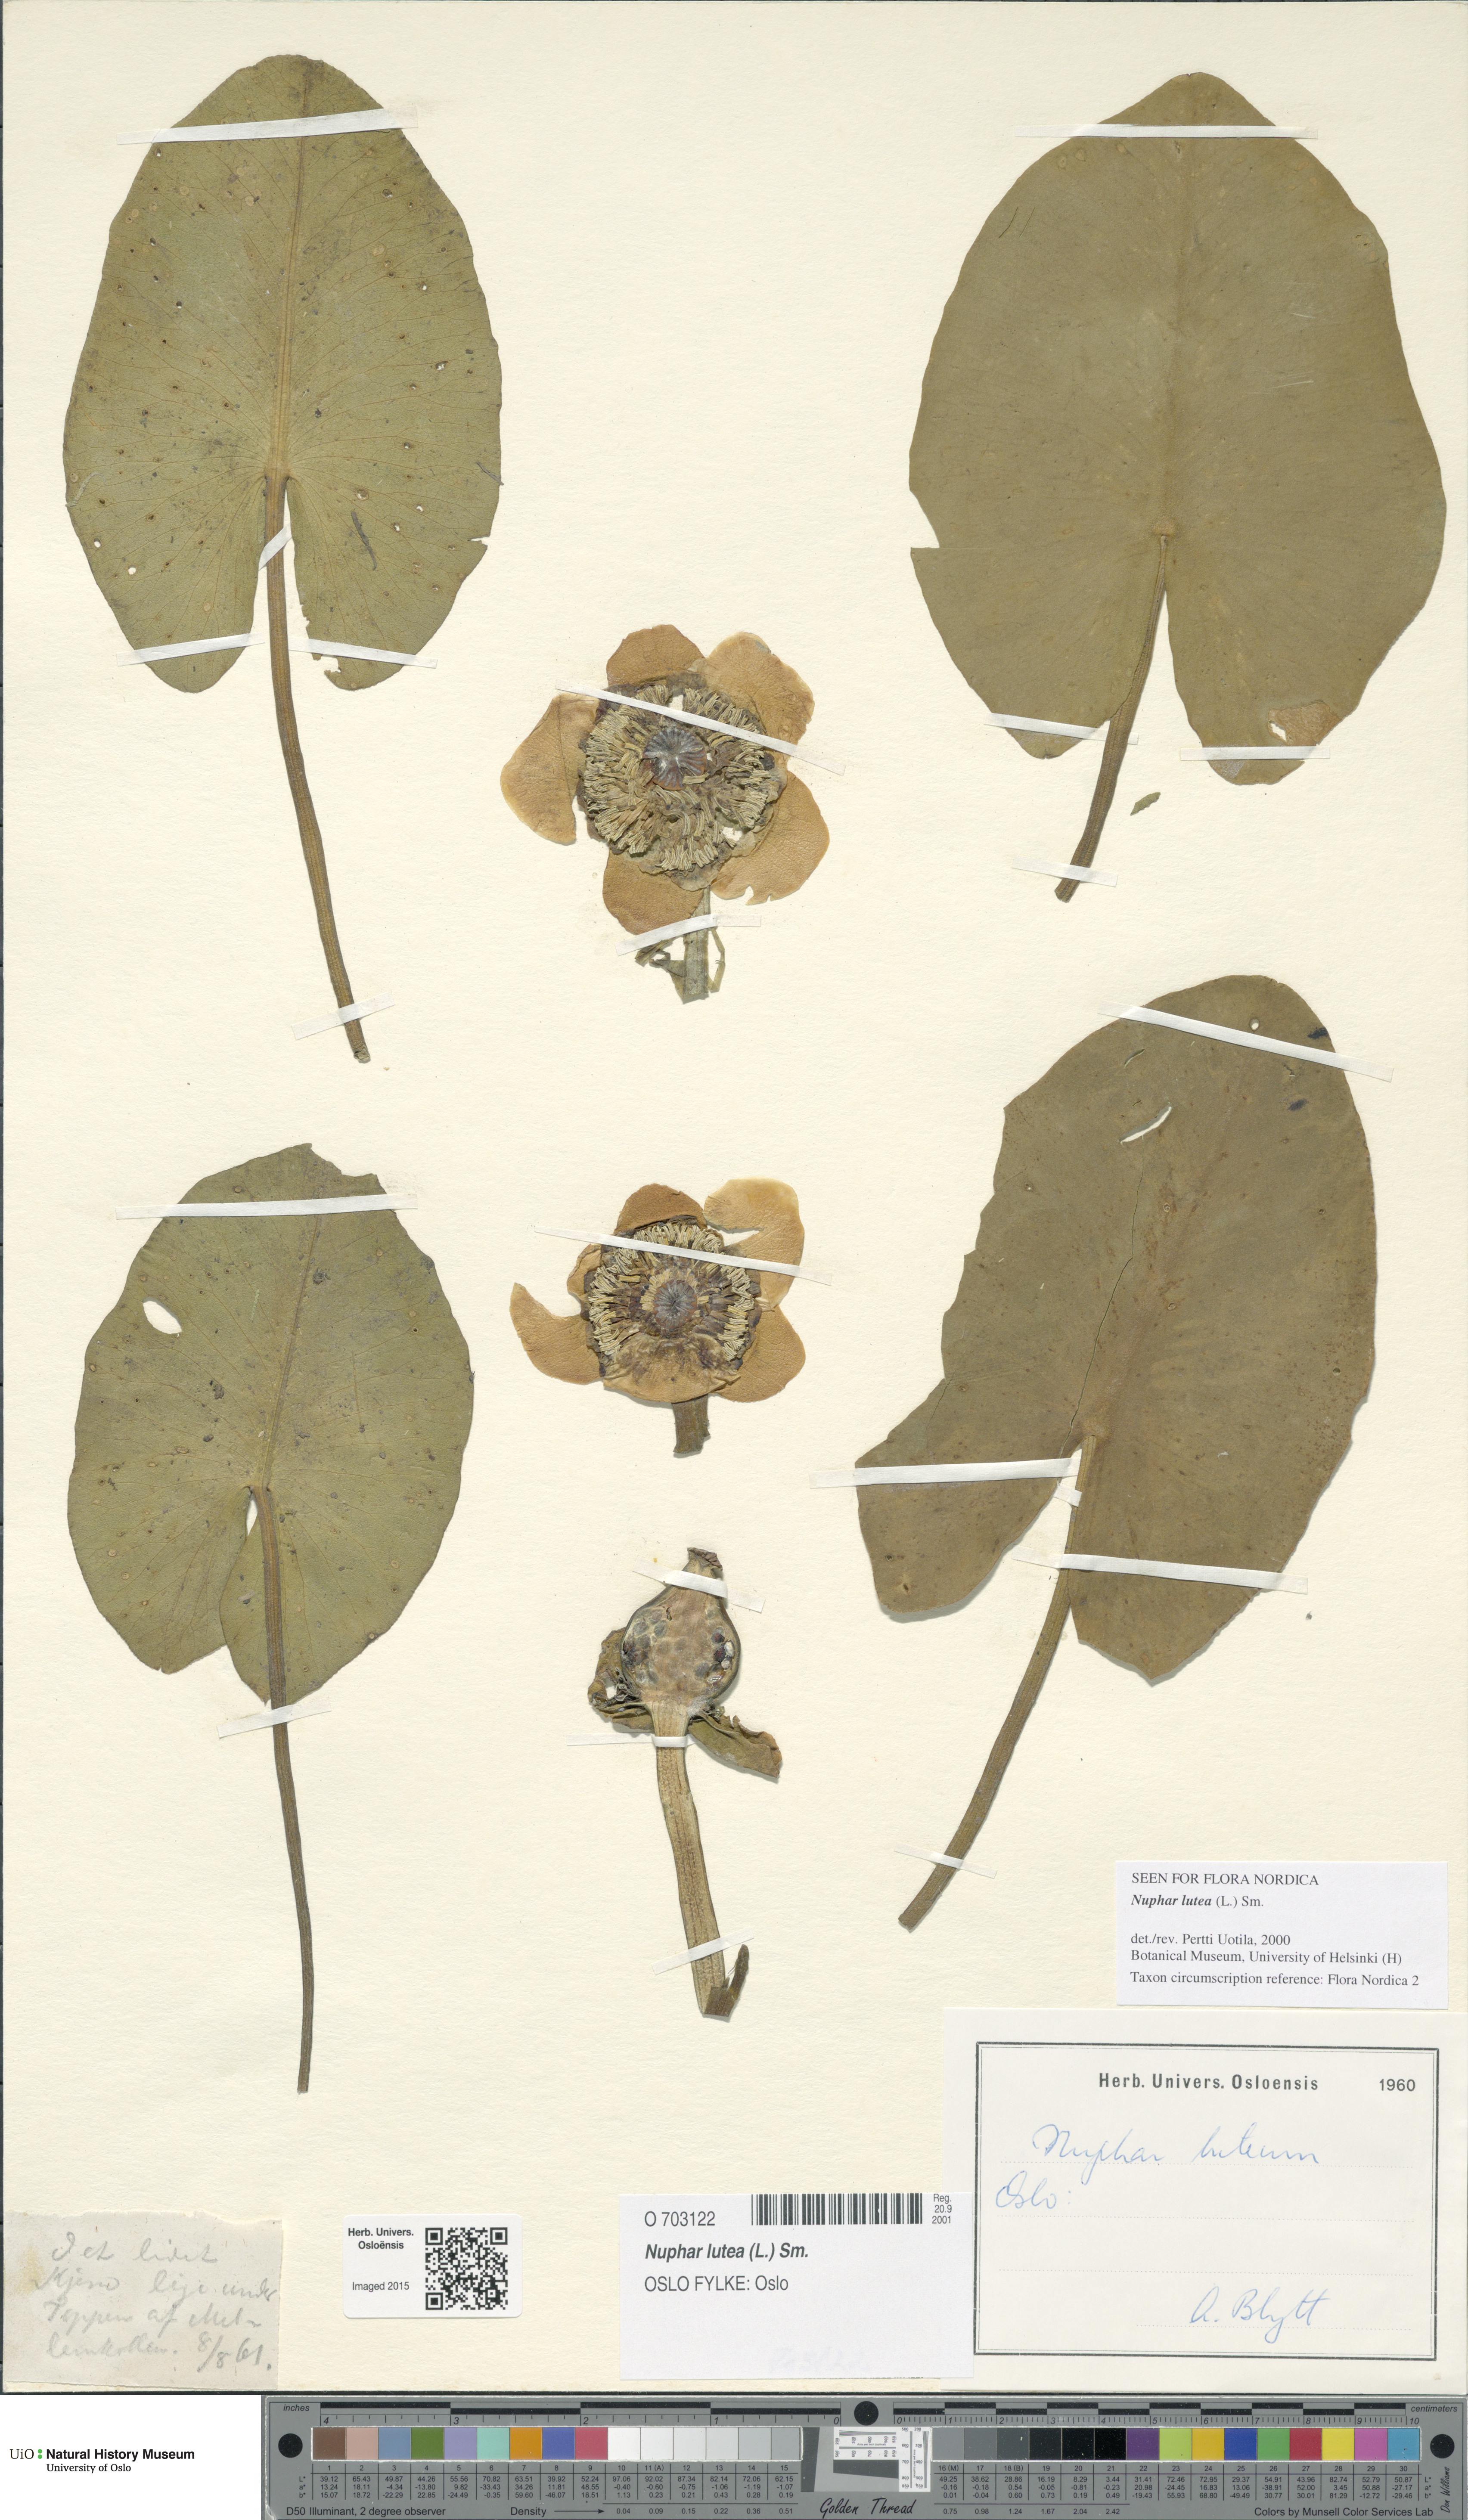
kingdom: Plantae
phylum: Tracheophyta
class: Magnoliopsida
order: Nymphaeales
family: Nymphaeaceae
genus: Nuphar
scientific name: Nuphar lutea
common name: Yellow water-lily
